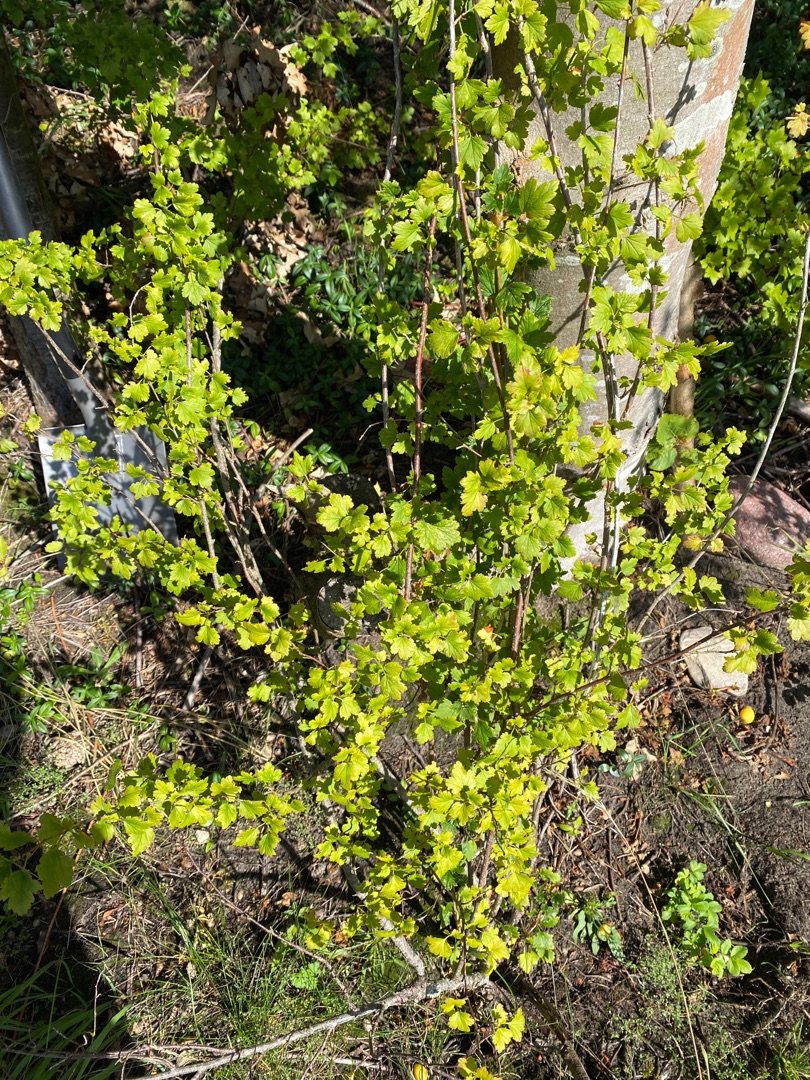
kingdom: Plantae
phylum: Tracheophyta
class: Magnoliopsida
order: Saxifragales
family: Grossulariaceae
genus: Ribes
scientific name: Ribes alpinum
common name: Fjeld-ribs
